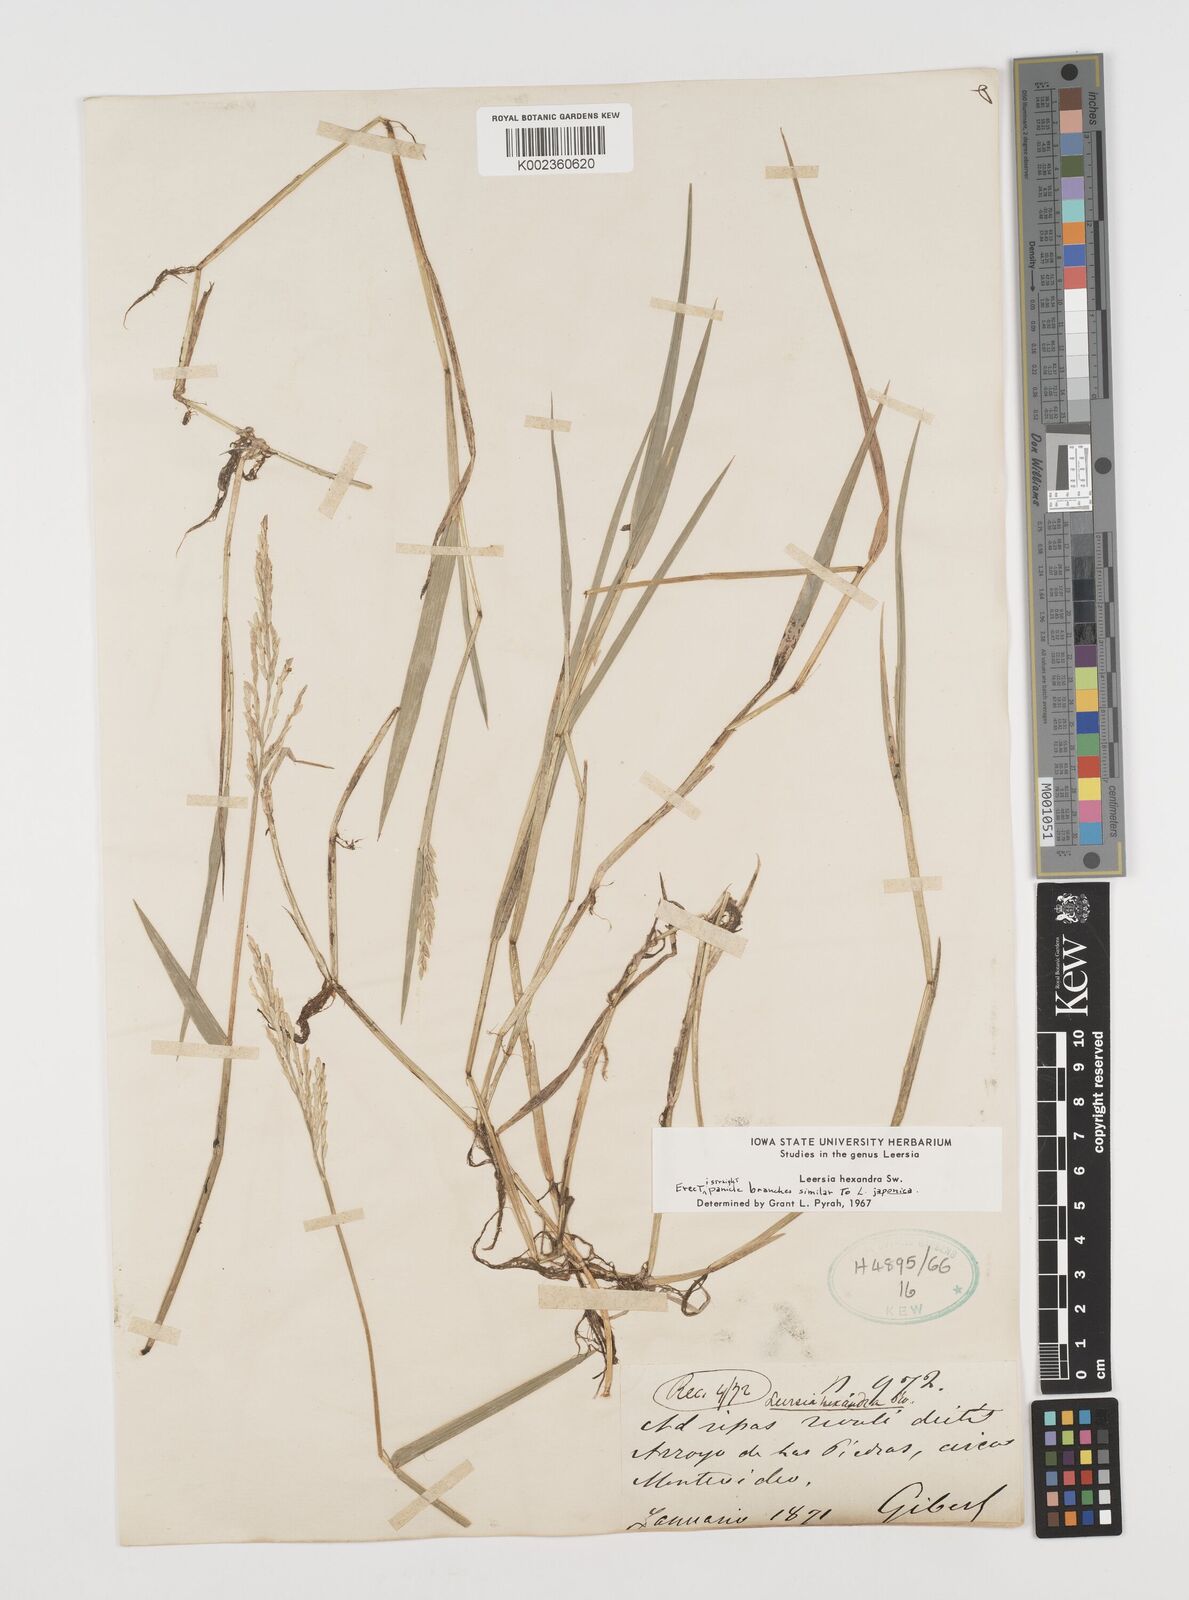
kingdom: Plantae
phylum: Tracheophyta
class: Liliopsida
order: Poales
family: Poaceae
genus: Leersia
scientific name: Leersia hexandra
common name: Southern cut grass
